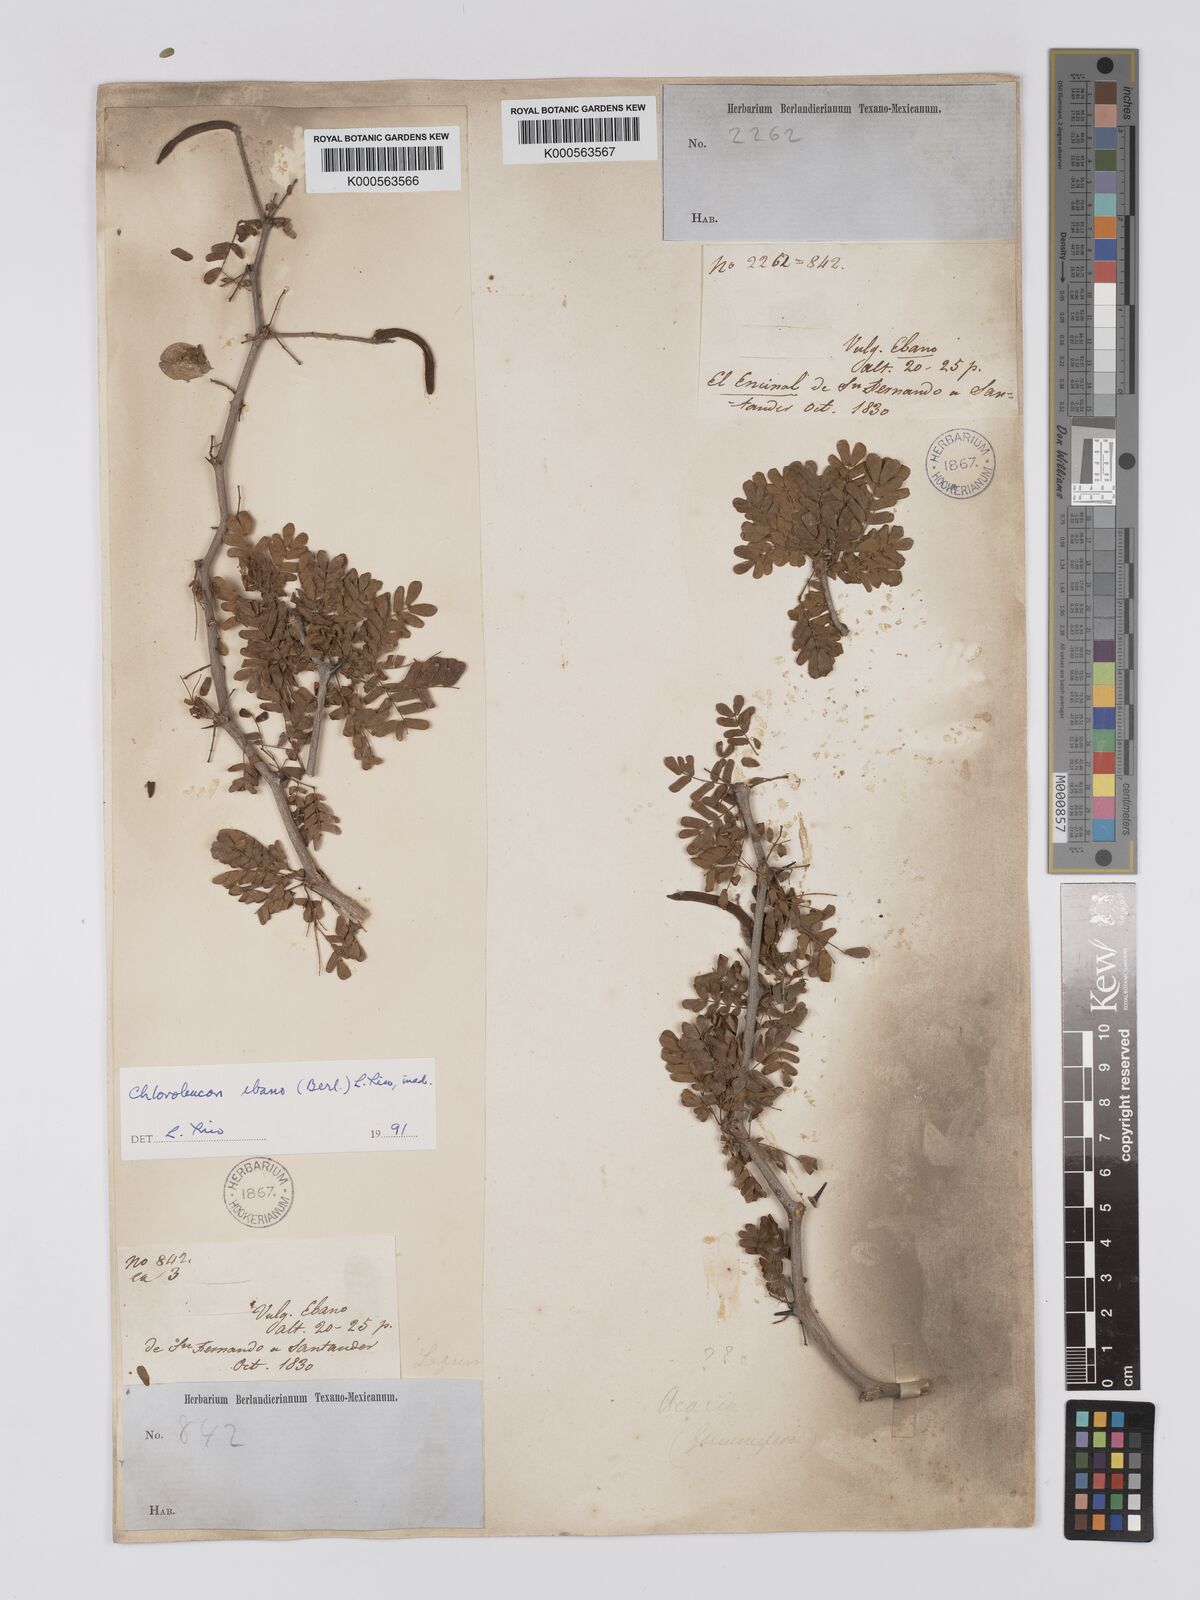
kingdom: Plantae
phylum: Tracheophyta
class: Magnoliopsida
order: Fabales
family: Fabaceae
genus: Ebenopsis
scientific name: Ebenopsis ebano
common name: Ebony blackbead
